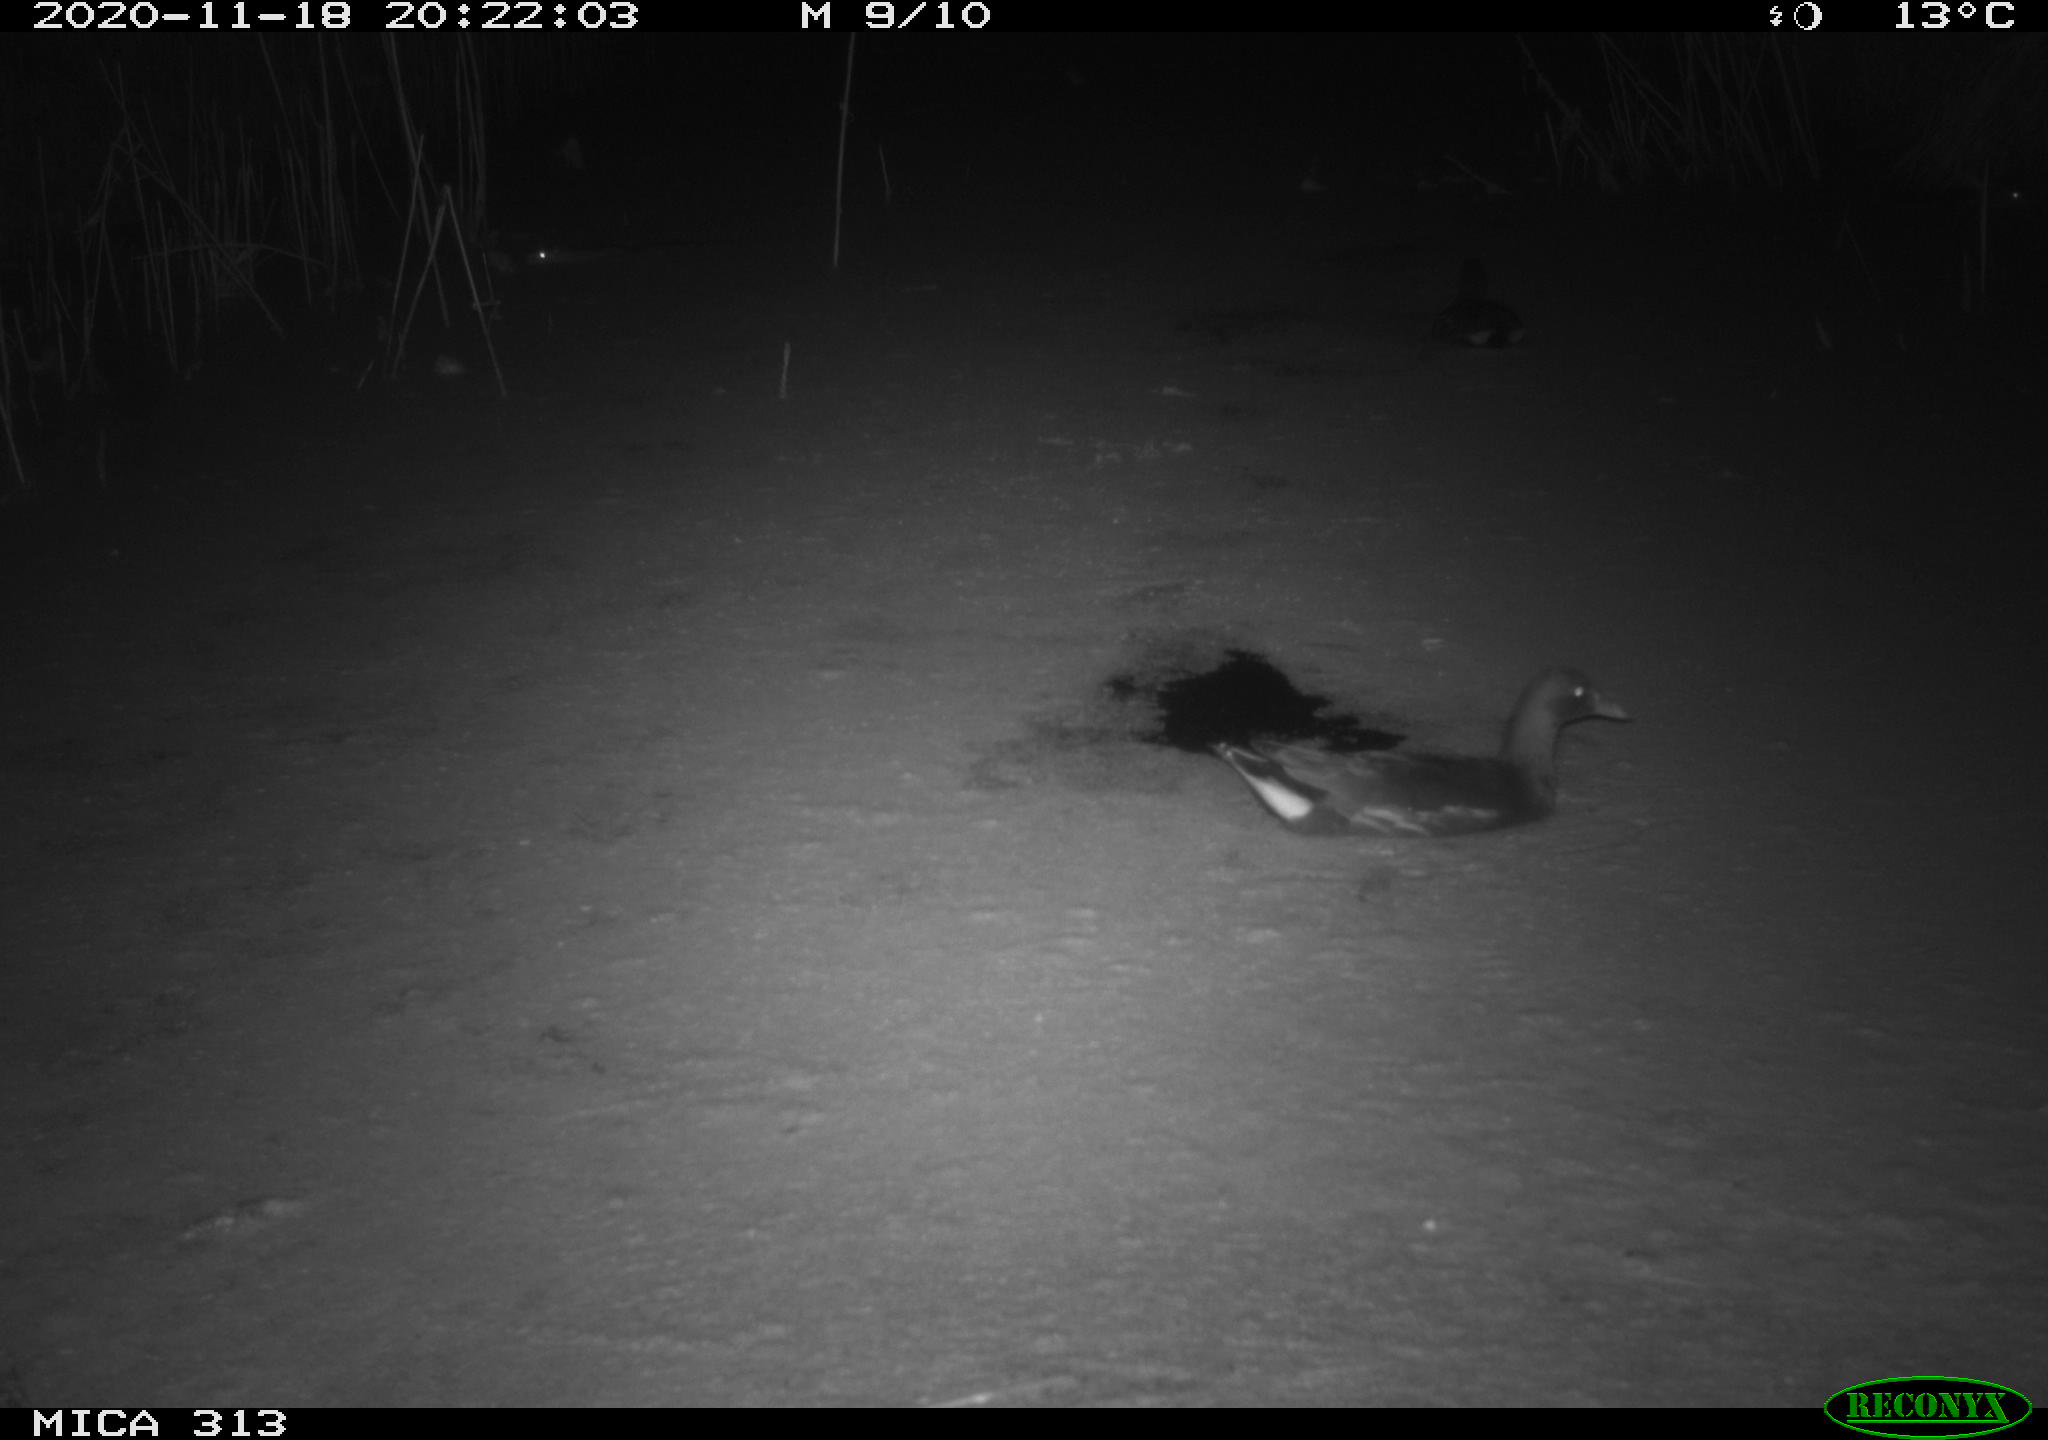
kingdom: Animalia
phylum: Chordata
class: Mammalia
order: Rodentia
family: Muridae
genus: Rattus
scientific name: Rattus norvegicus
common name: Brown rat
